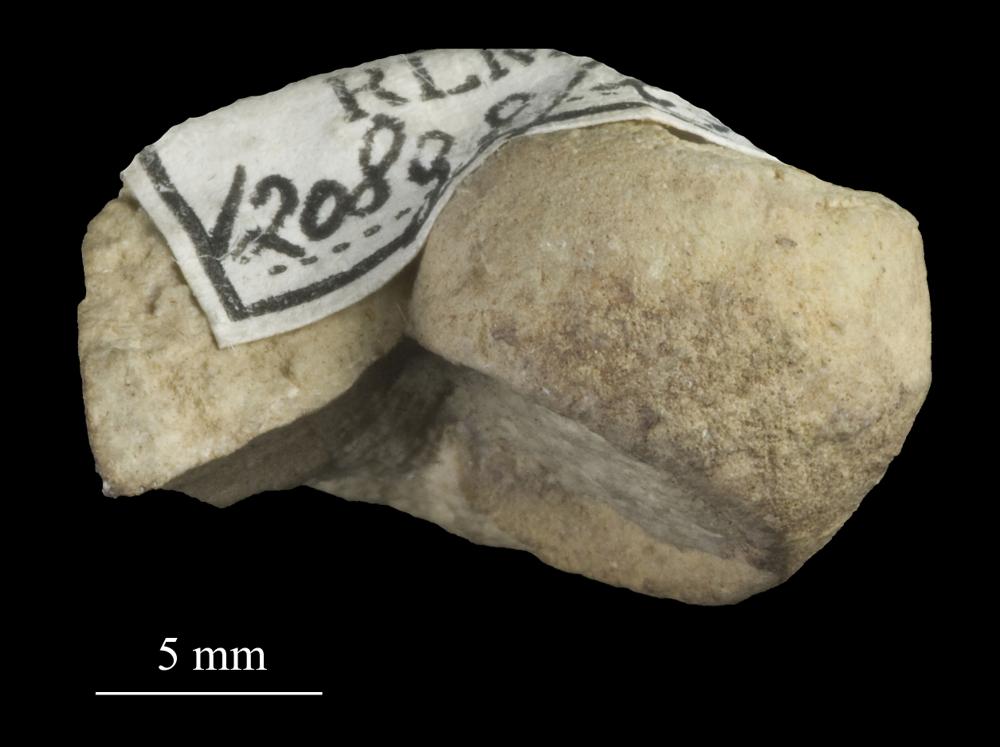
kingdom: Animalia
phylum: Mollusca
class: Gastropoda
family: Bucaniidae
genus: Tetranota
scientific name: Tetranota Bucaniella lineata
